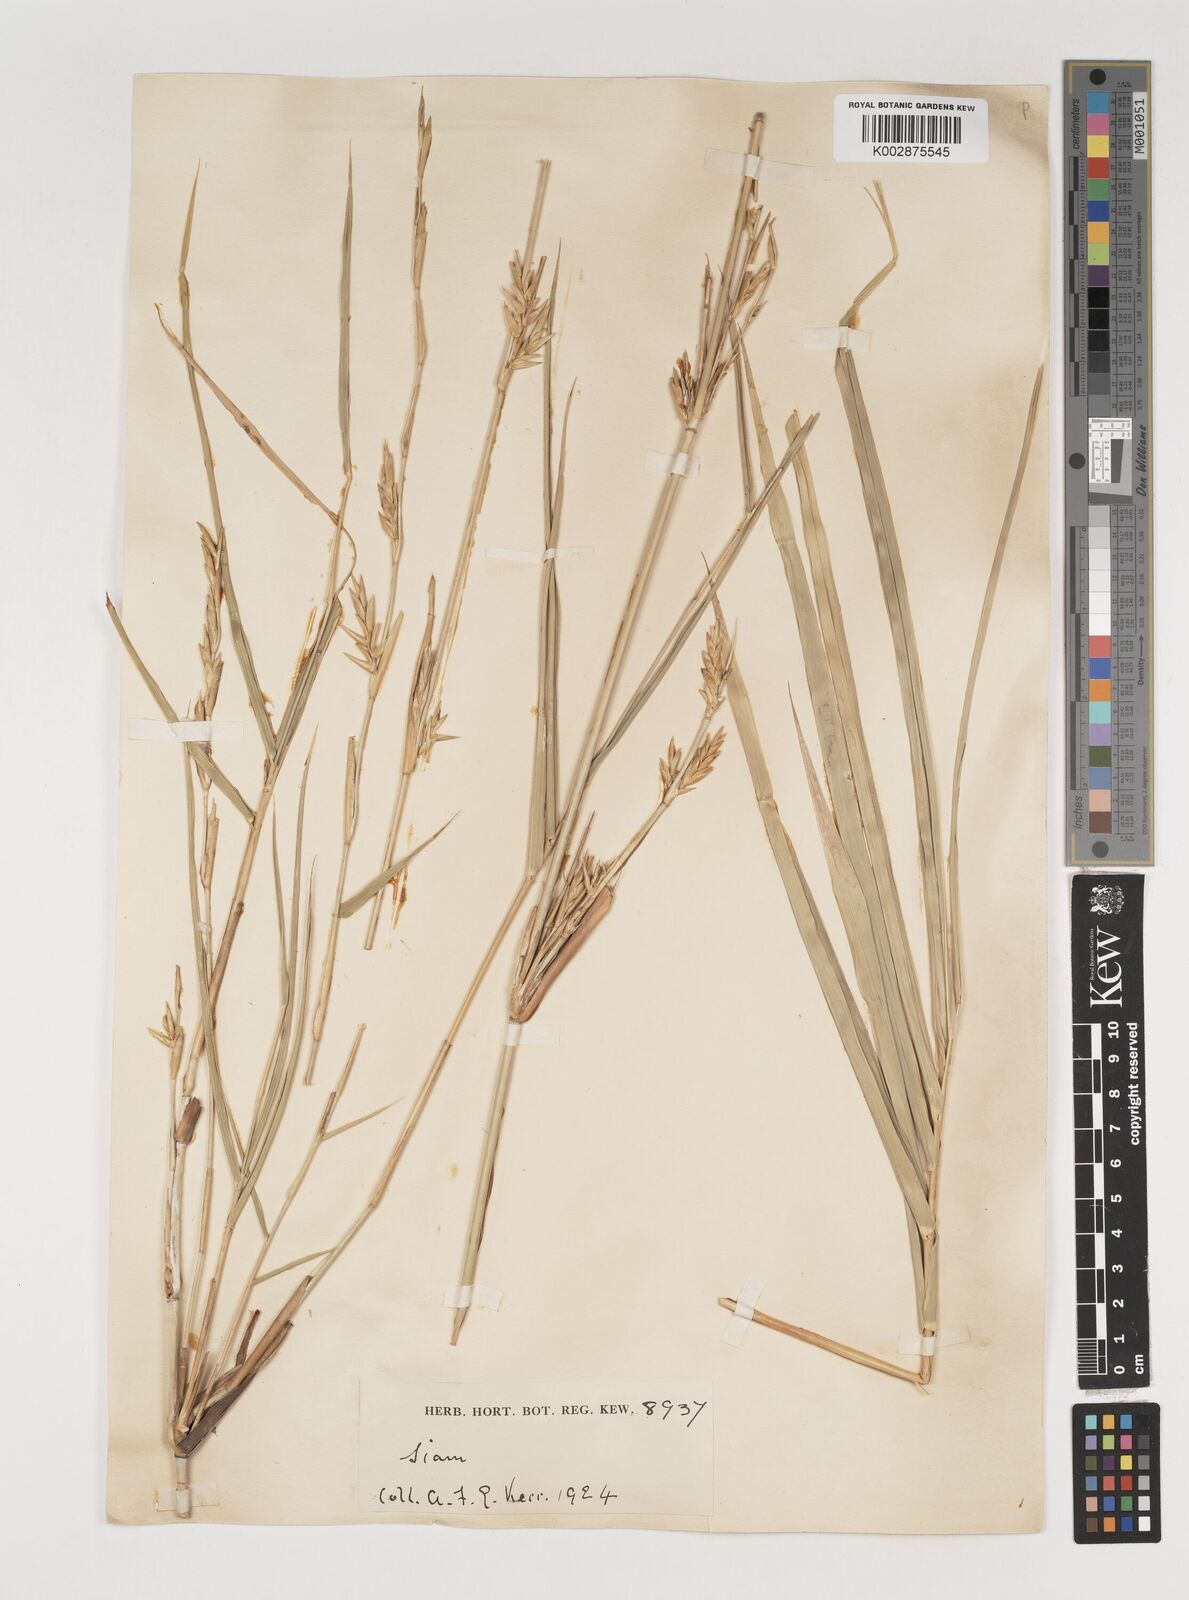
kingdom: Plantae
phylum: Tracheophyta
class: Liliopsida
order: Poales
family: Poaceae
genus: Vietnamosasa
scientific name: Vietnamosasa pusilla
